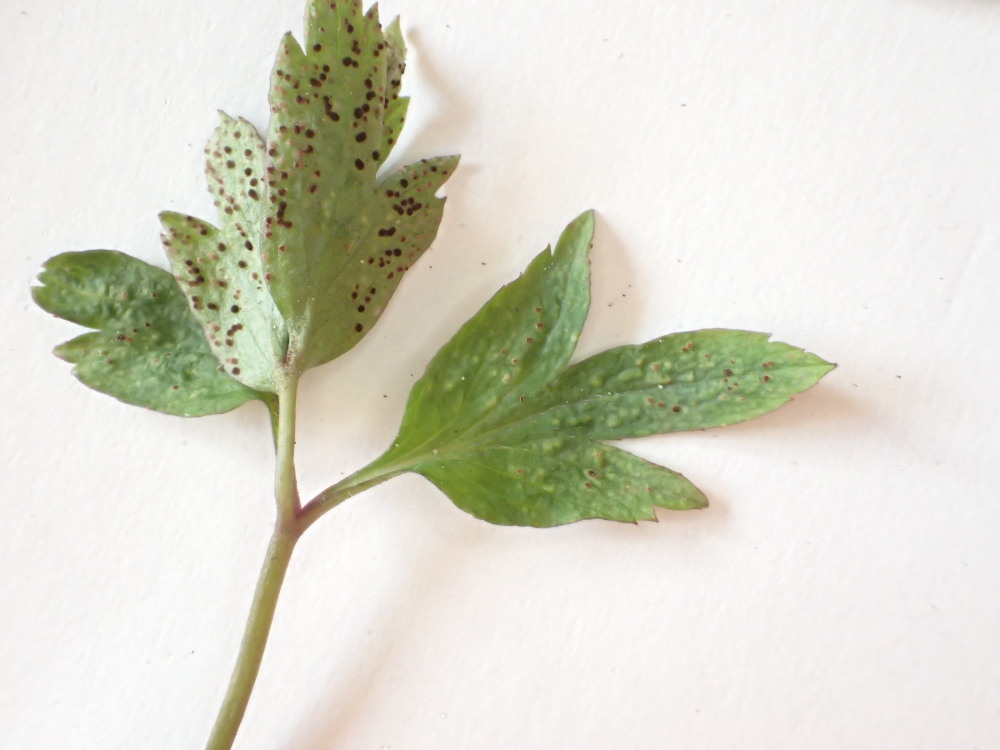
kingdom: Fungi
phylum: Basidiomycota
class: Pucciniomycetes
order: Pucciniales
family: Tranzscheliaceae
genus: Tranzschelia
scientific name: Tranzschelia anemones
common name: anemone-knæksporerust
